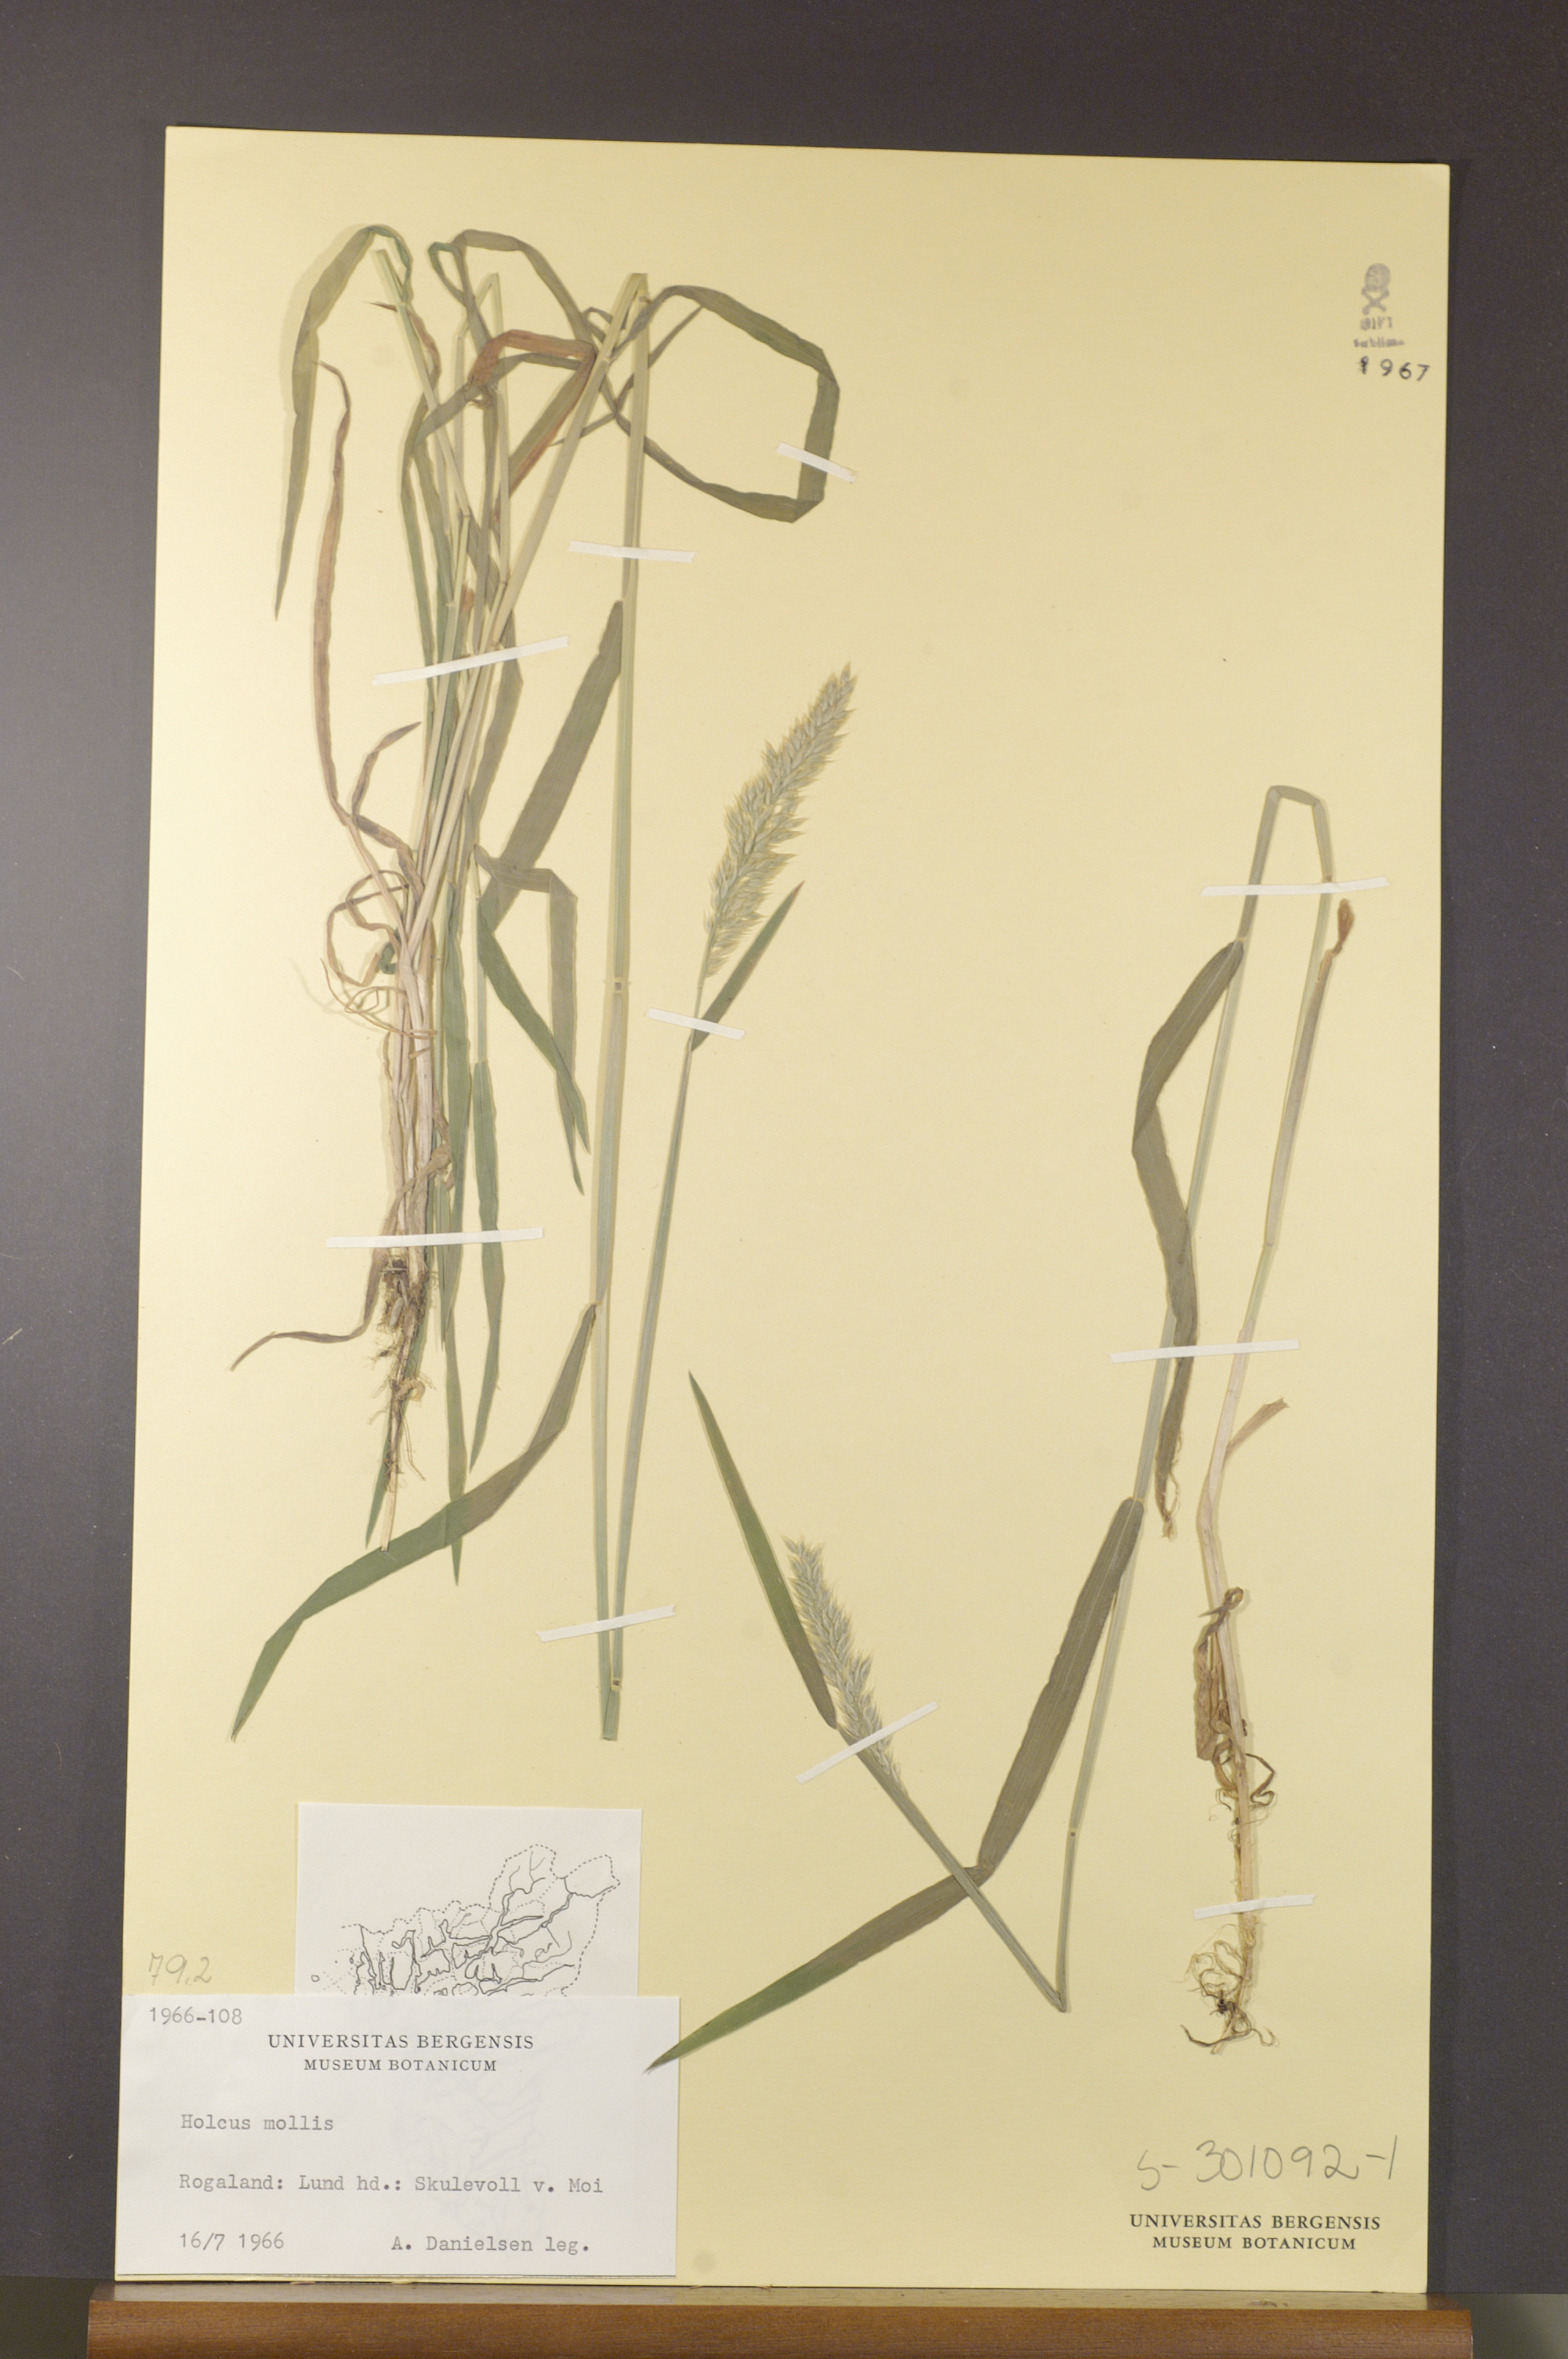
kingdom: Plantae
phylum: Tracheophyta
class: Liliopsida
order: Poales
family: Poaceae
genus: Holcus
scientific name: Holcus mollis
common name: Creeping velvetgrass
